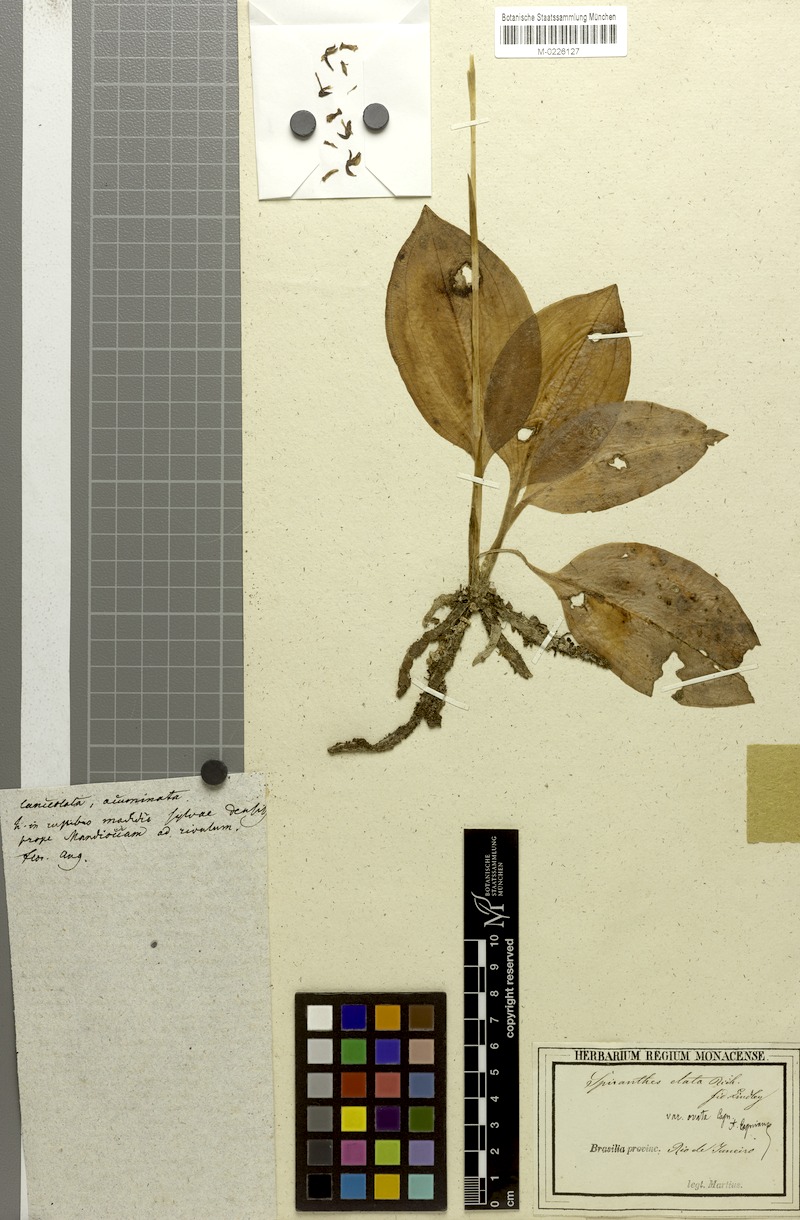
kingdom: Plantae
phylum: Tracheophyta
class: Liliopsida
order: Asparagales
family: Orchidaceae
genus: Cyclopogon
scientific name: Cyclopogon elatus
